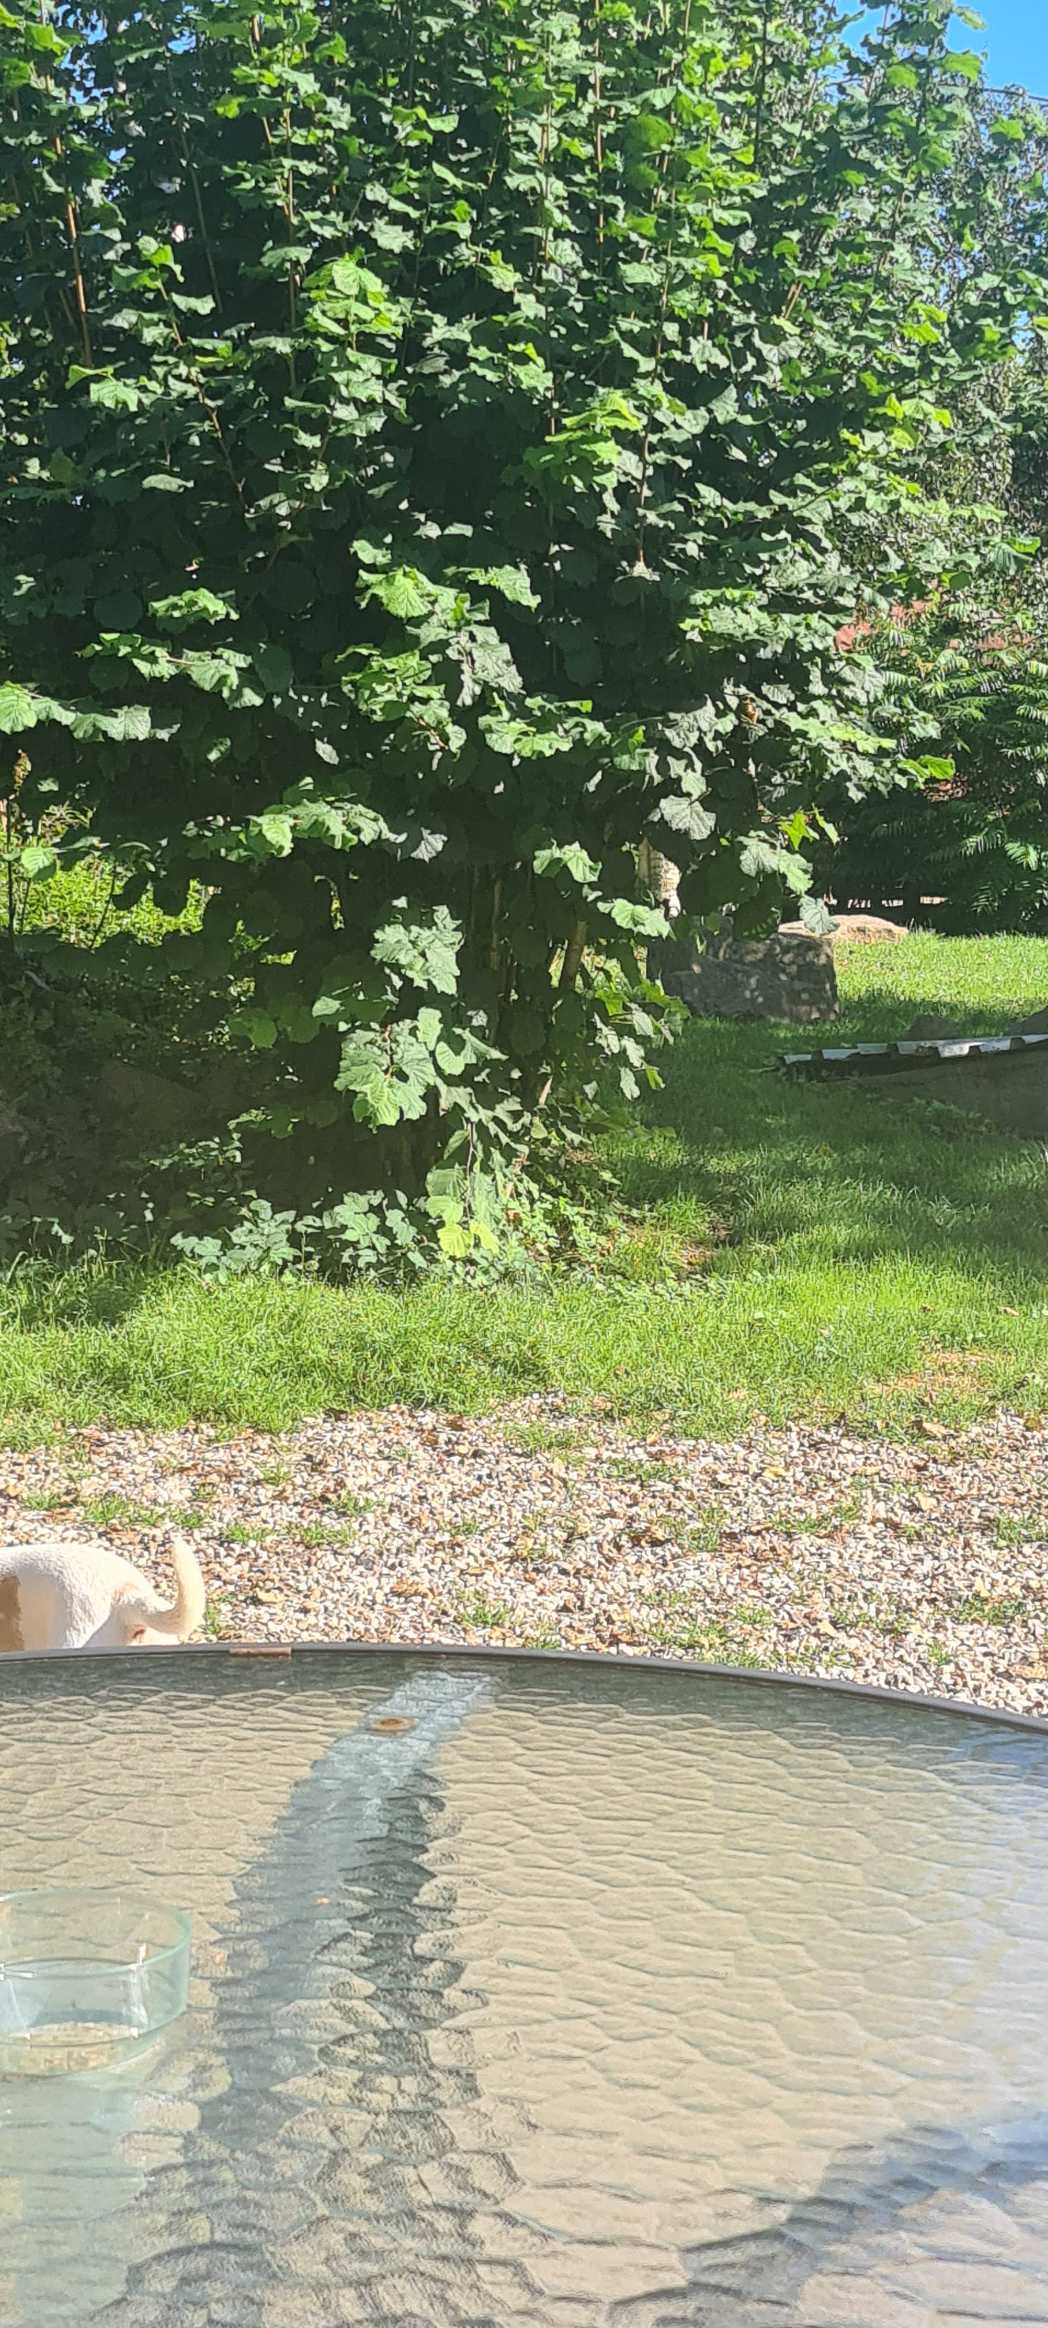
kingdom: Plantae
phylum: Tracheophyta
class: Magnoliopsida
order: Fagales
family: Betulaceae
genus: Corylus
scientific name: Corylus avellana
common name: Hassel
